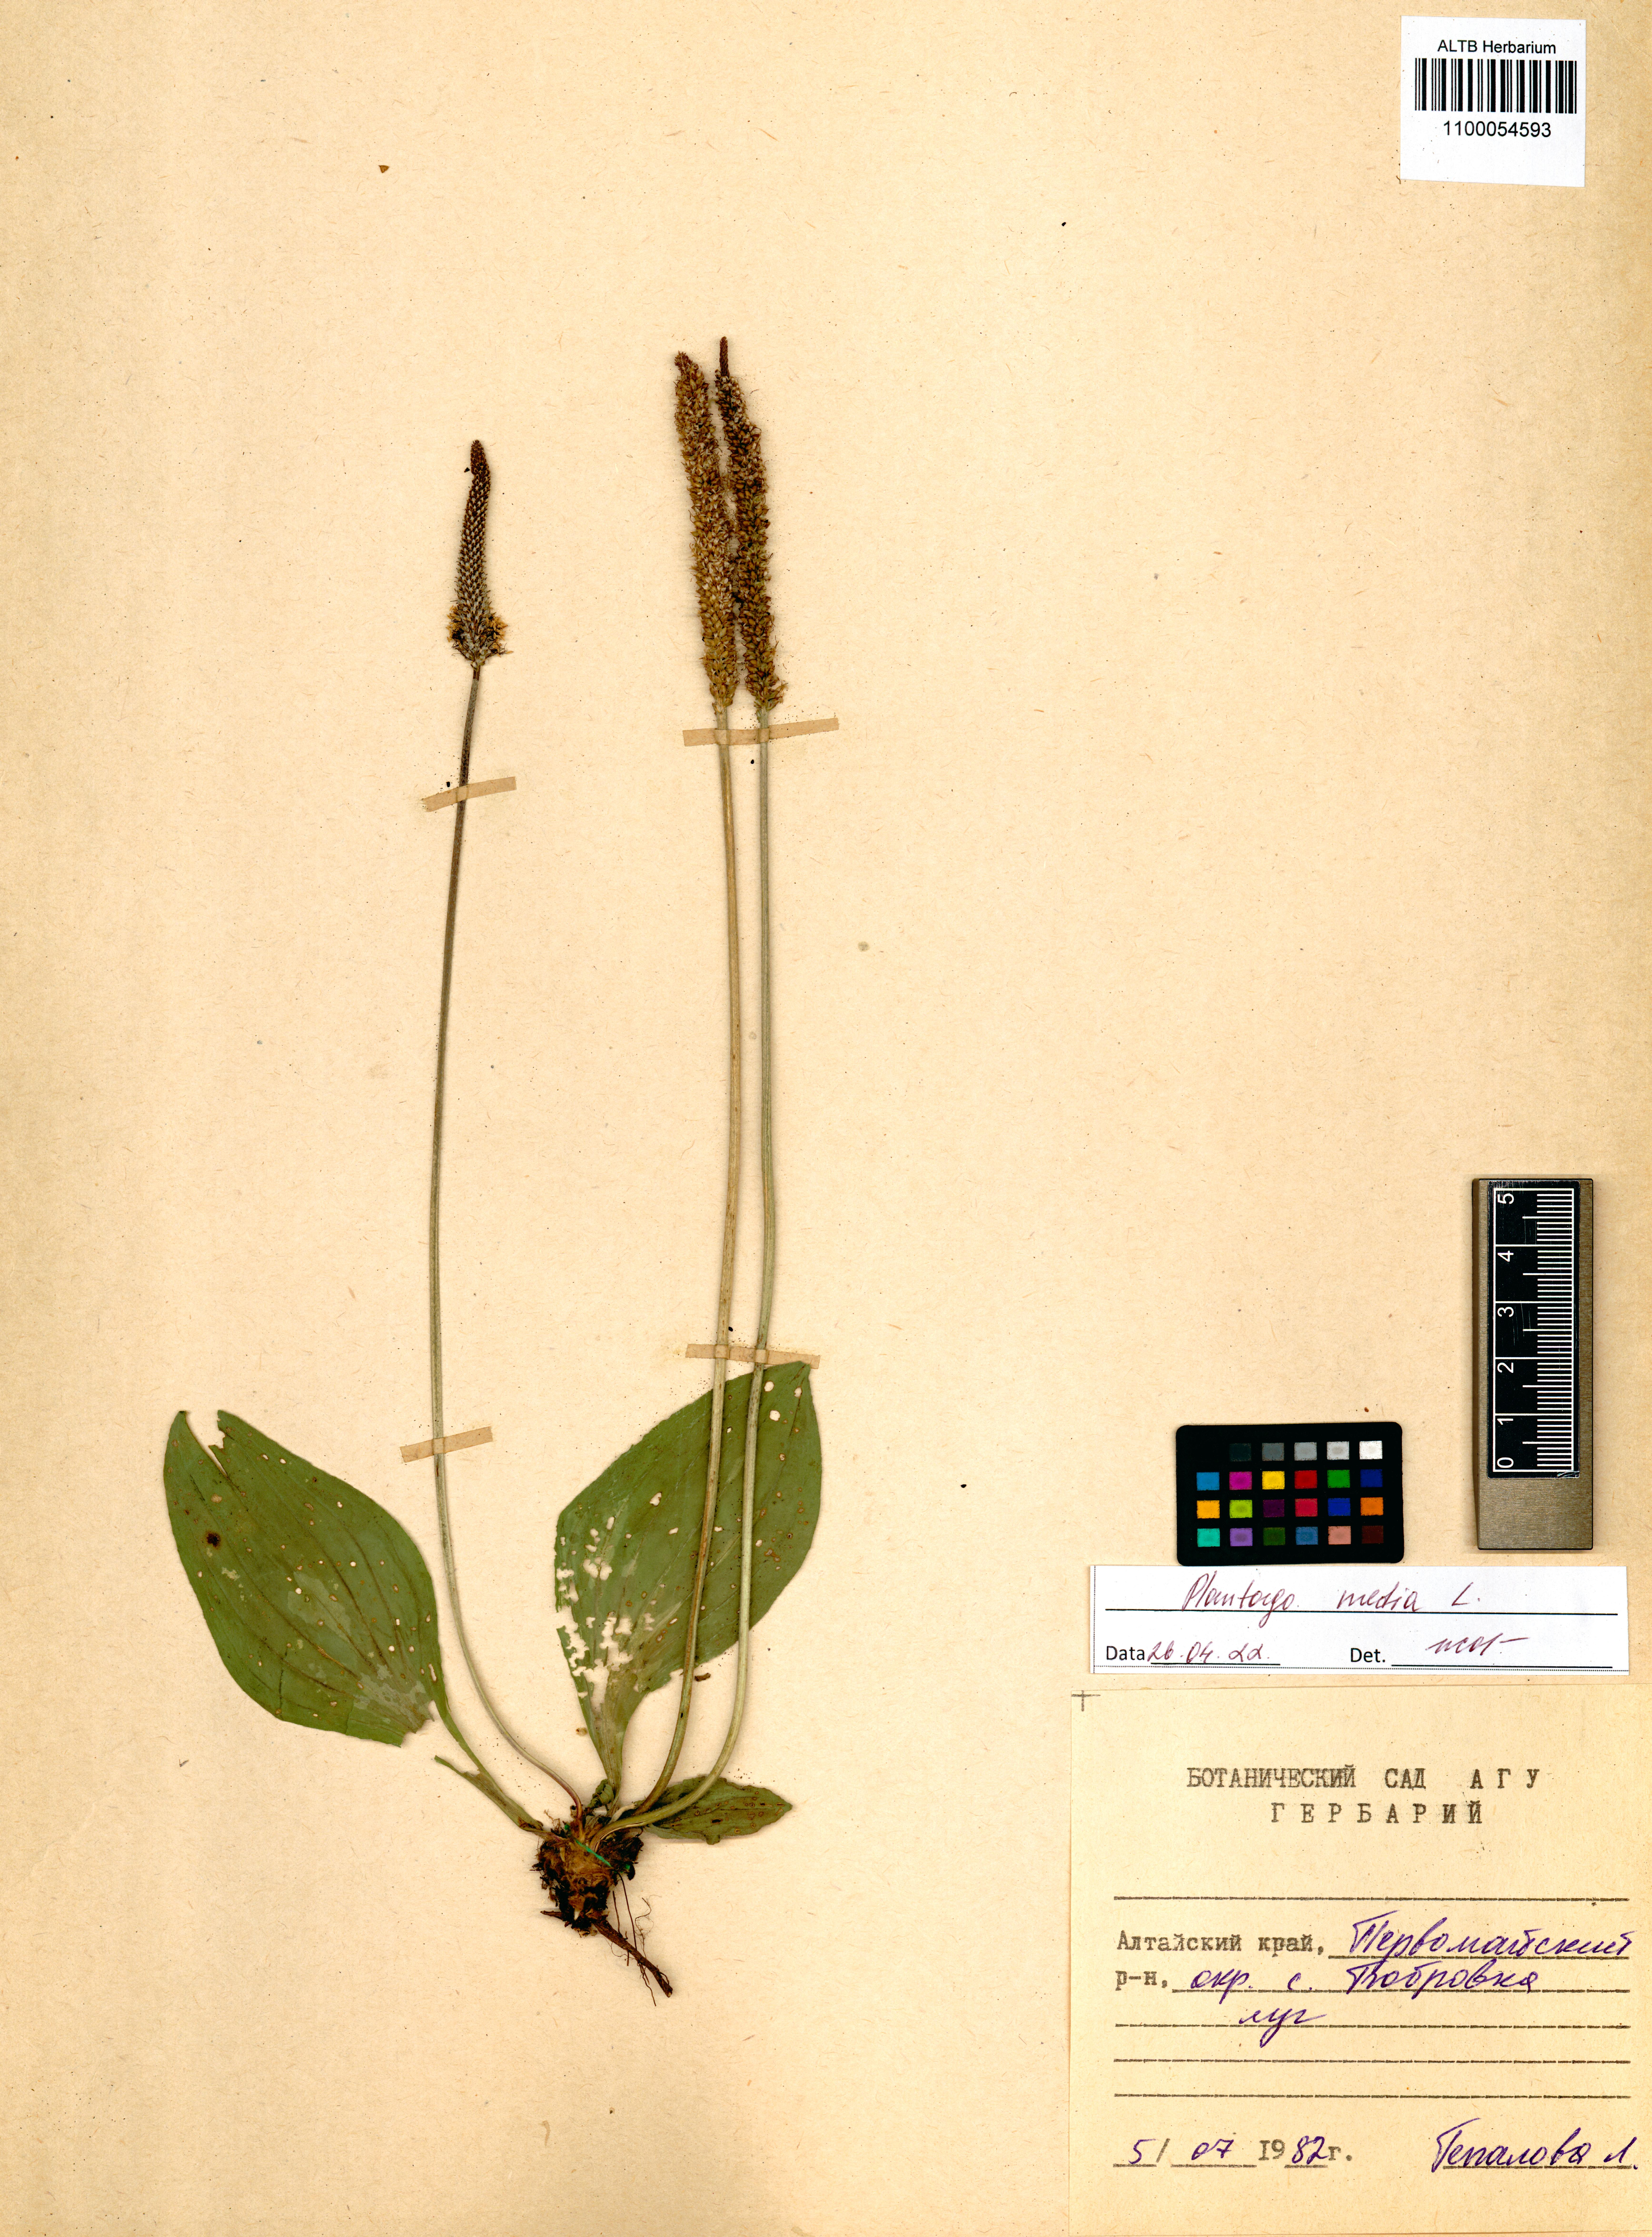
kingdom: Plantae
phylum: Tracheophyta
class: Magnoliopsida
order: Lamiales
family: Plantaginaceae
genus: Plantago
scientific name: Plantago media
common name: Hoary plantain
